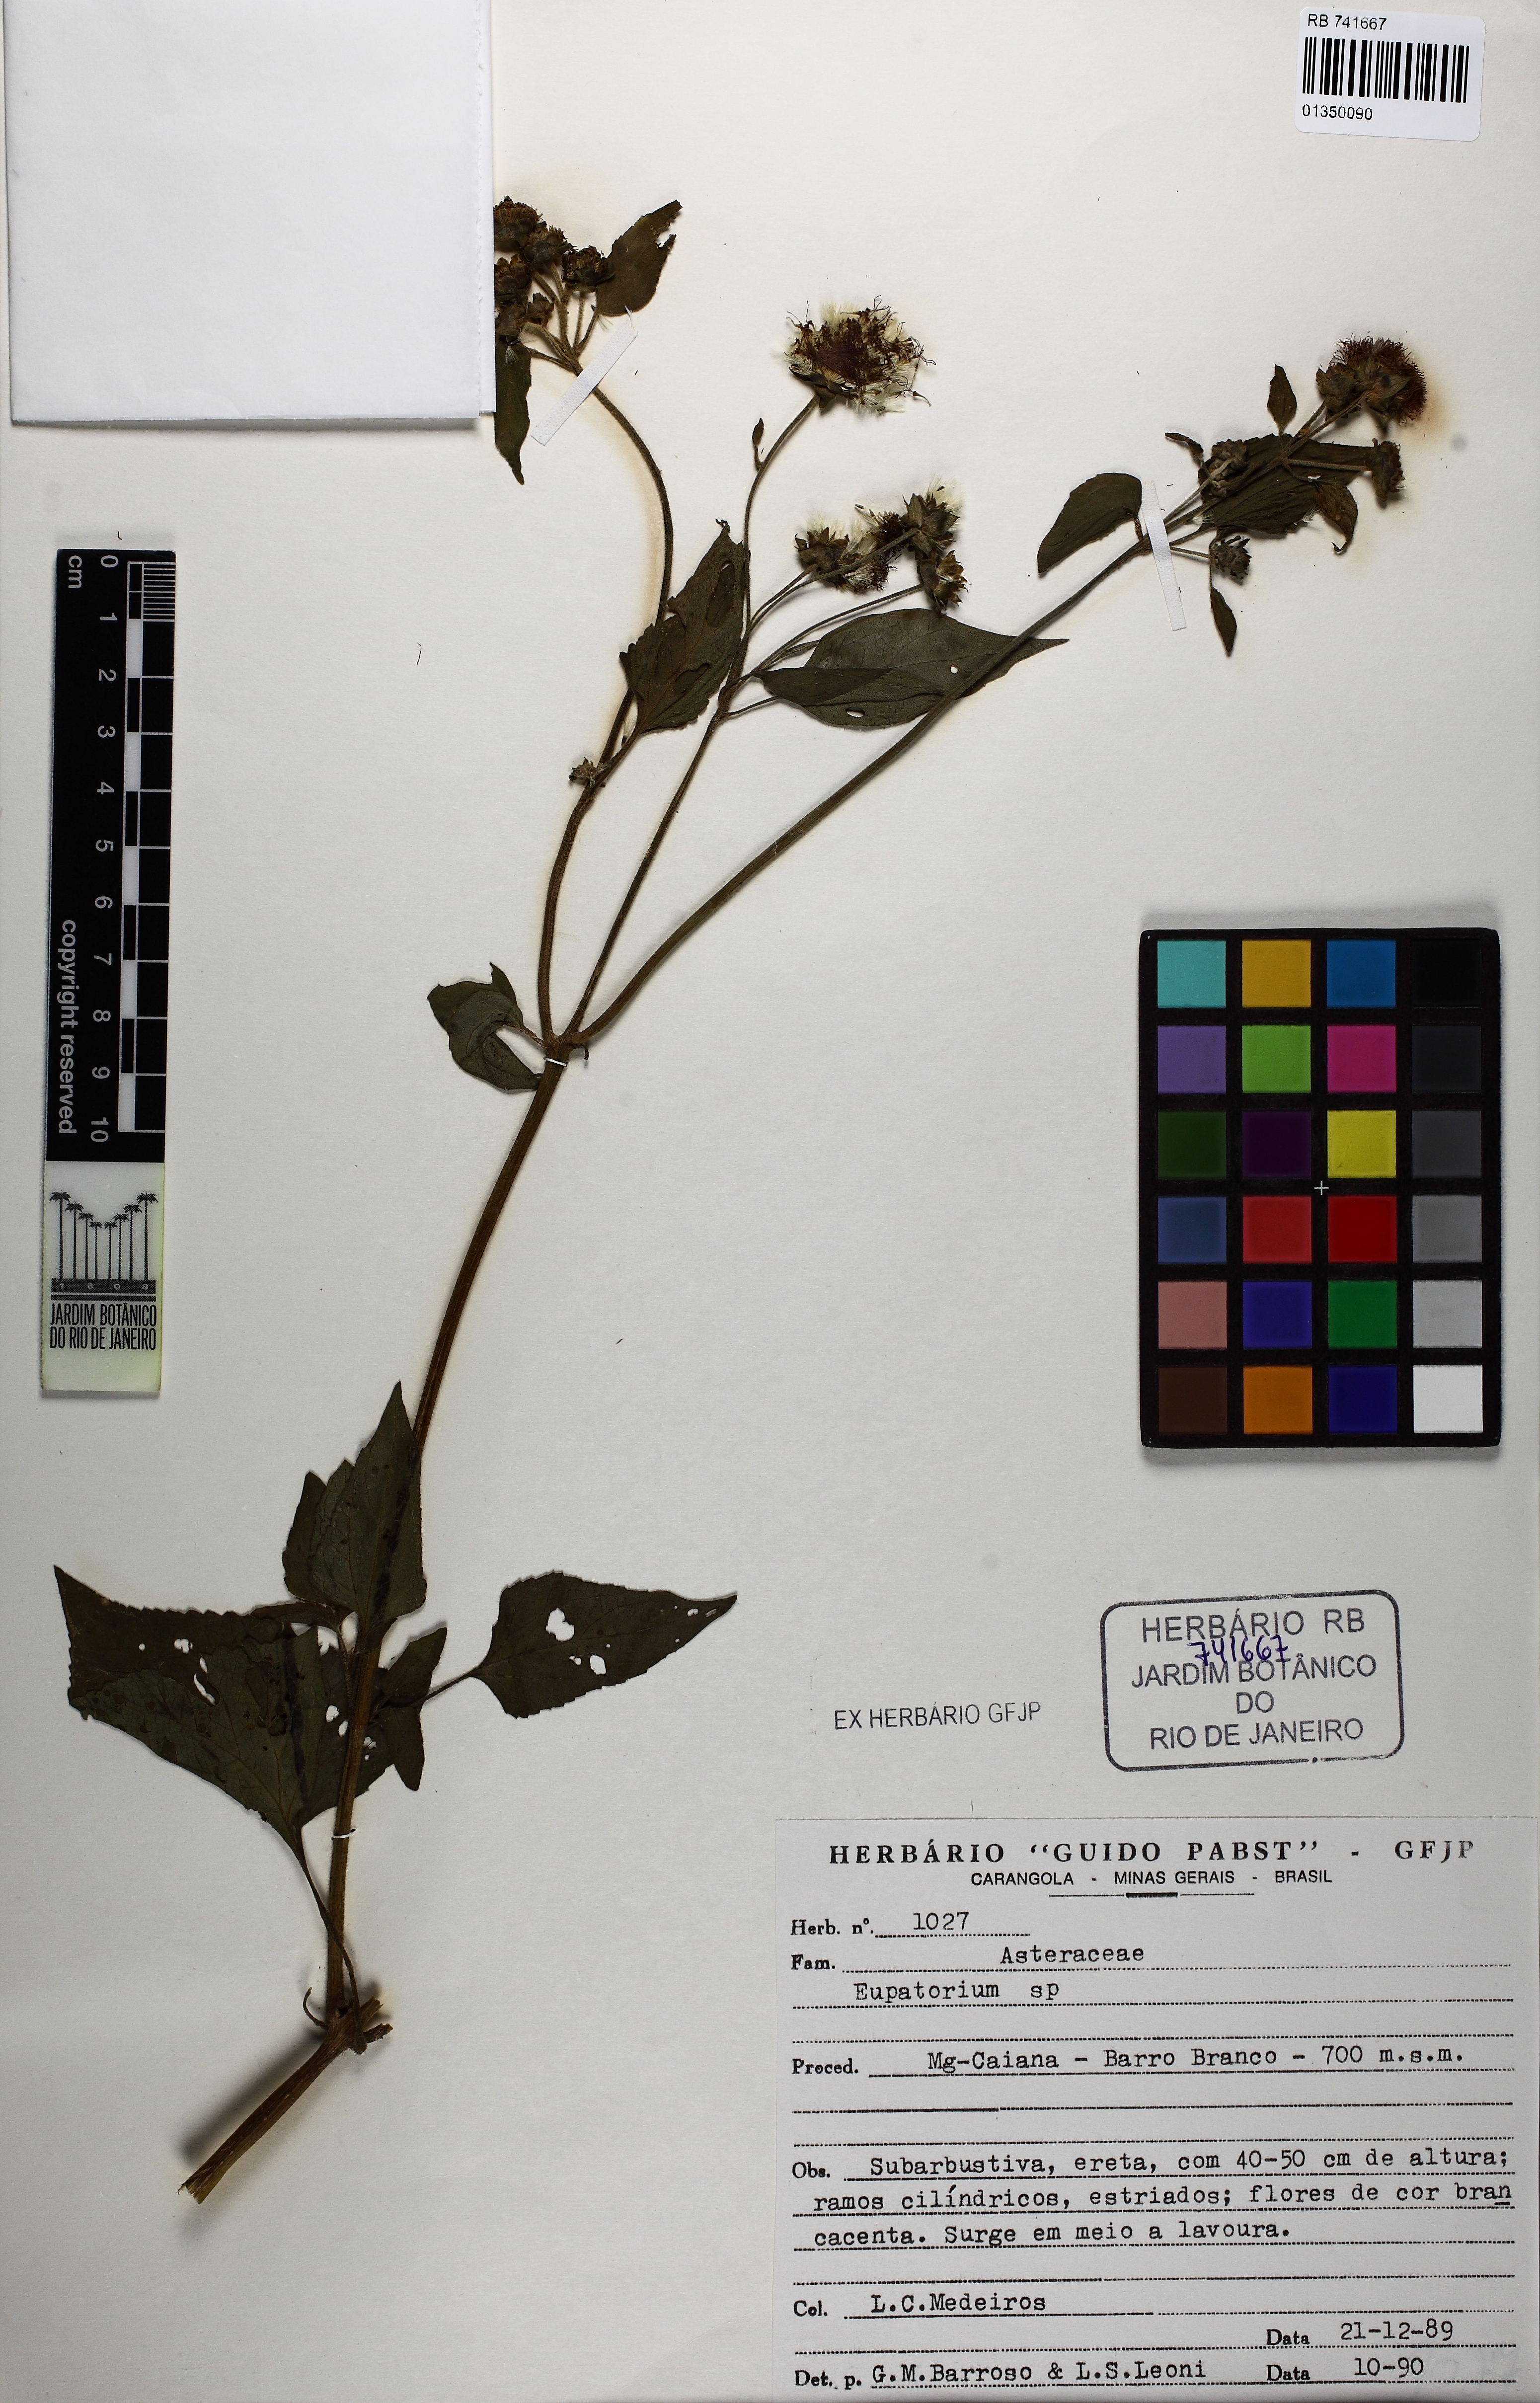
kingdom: Plantae
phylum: Tracheophyta
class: Magnoliopsida
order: Asterales
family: Asteraceae
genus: Eupatorium
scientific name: Eupatorium
